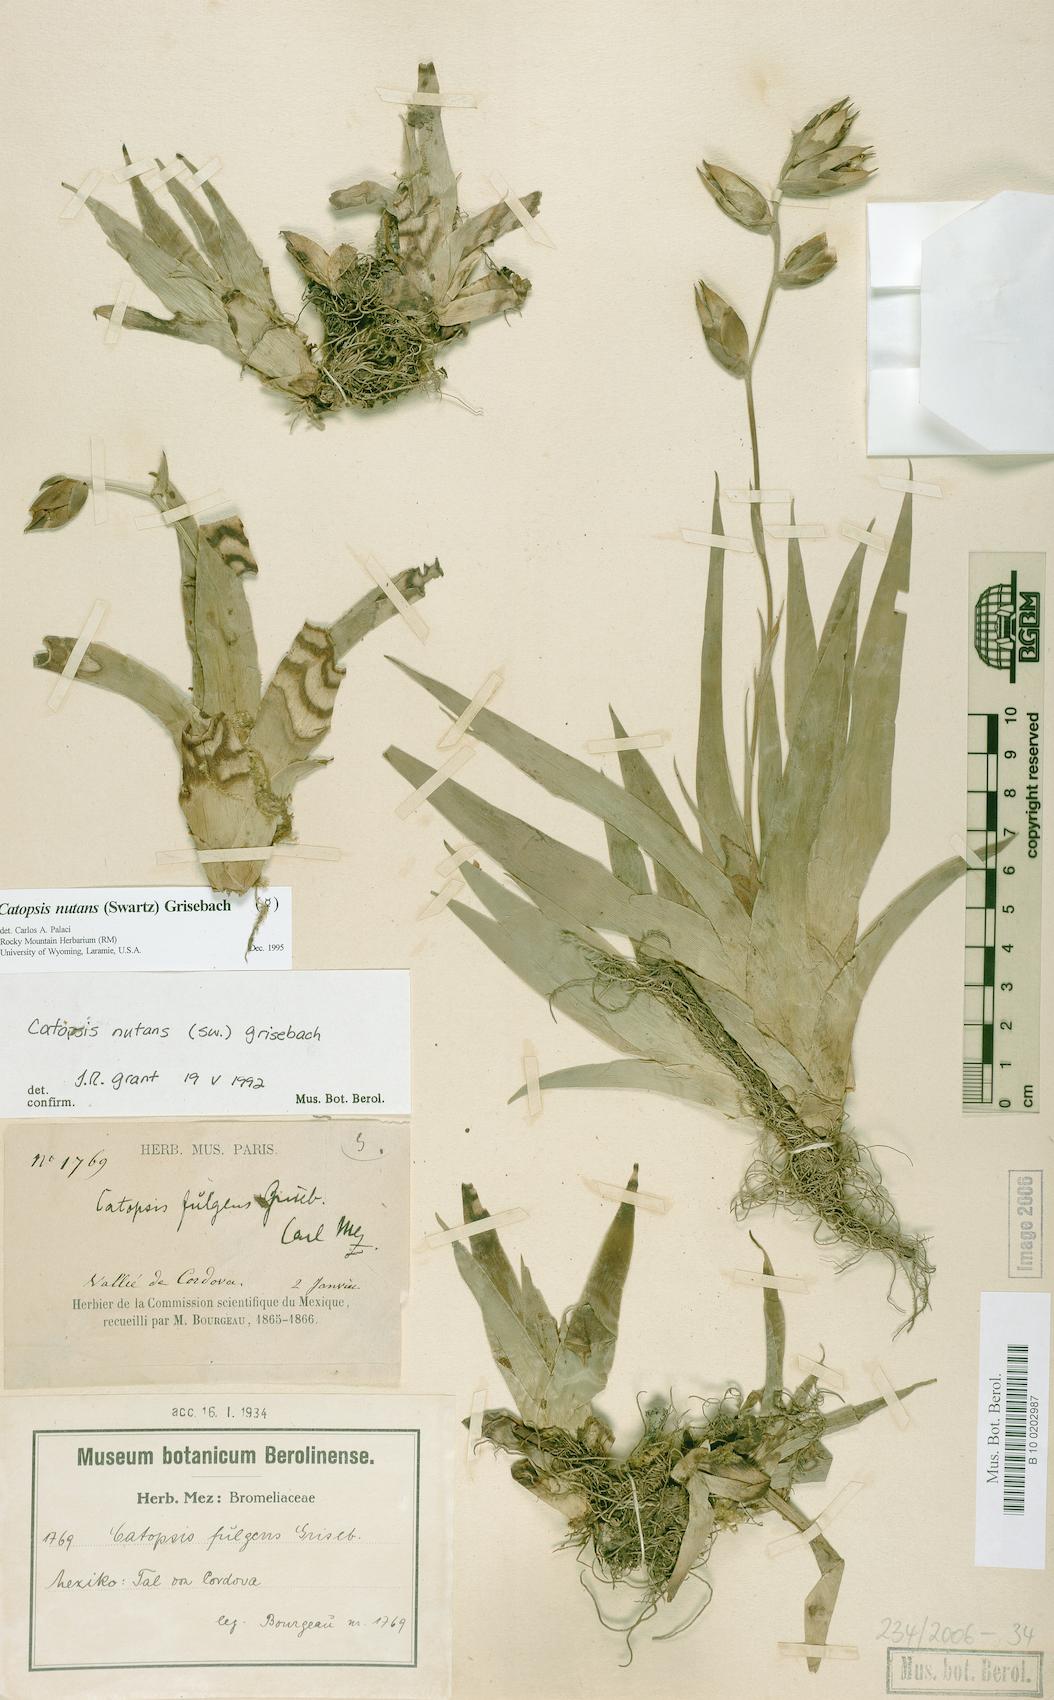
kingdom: Plantae
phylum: Tracheophyta
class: Liliopsida
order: Poales
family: Bromeliaceae
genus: Catopsis
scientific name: Catopsis nutans
